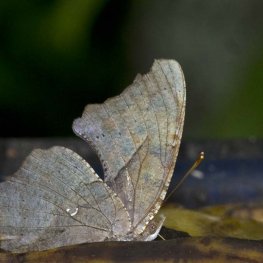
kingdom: Animalia
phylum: Arthropoda
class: Insecta
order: Lepidoptera
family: Nymphalidae
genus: Polygonia
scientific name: Polygonia interrogationis
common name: Question Mark
